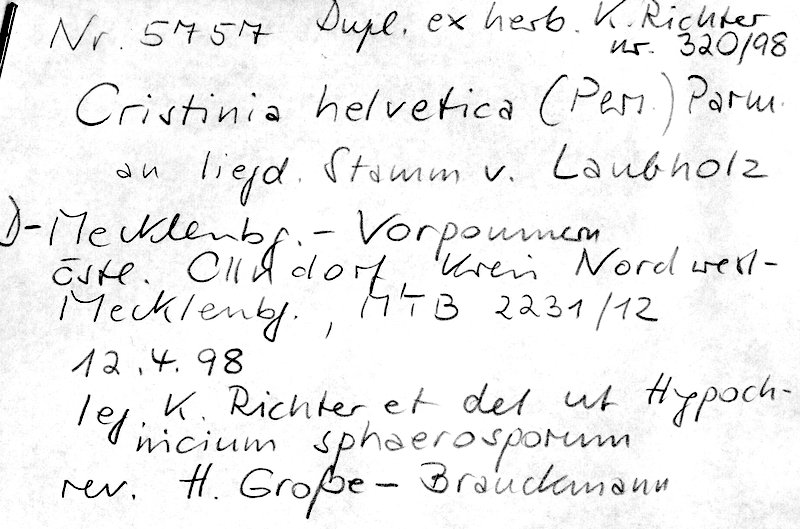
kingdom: Fungi
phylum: Basidiomycota
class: Agaricomycetes
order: Agaricales
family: Stephanosporaceae
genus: Cristinia
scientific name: Cristinia helvetica
